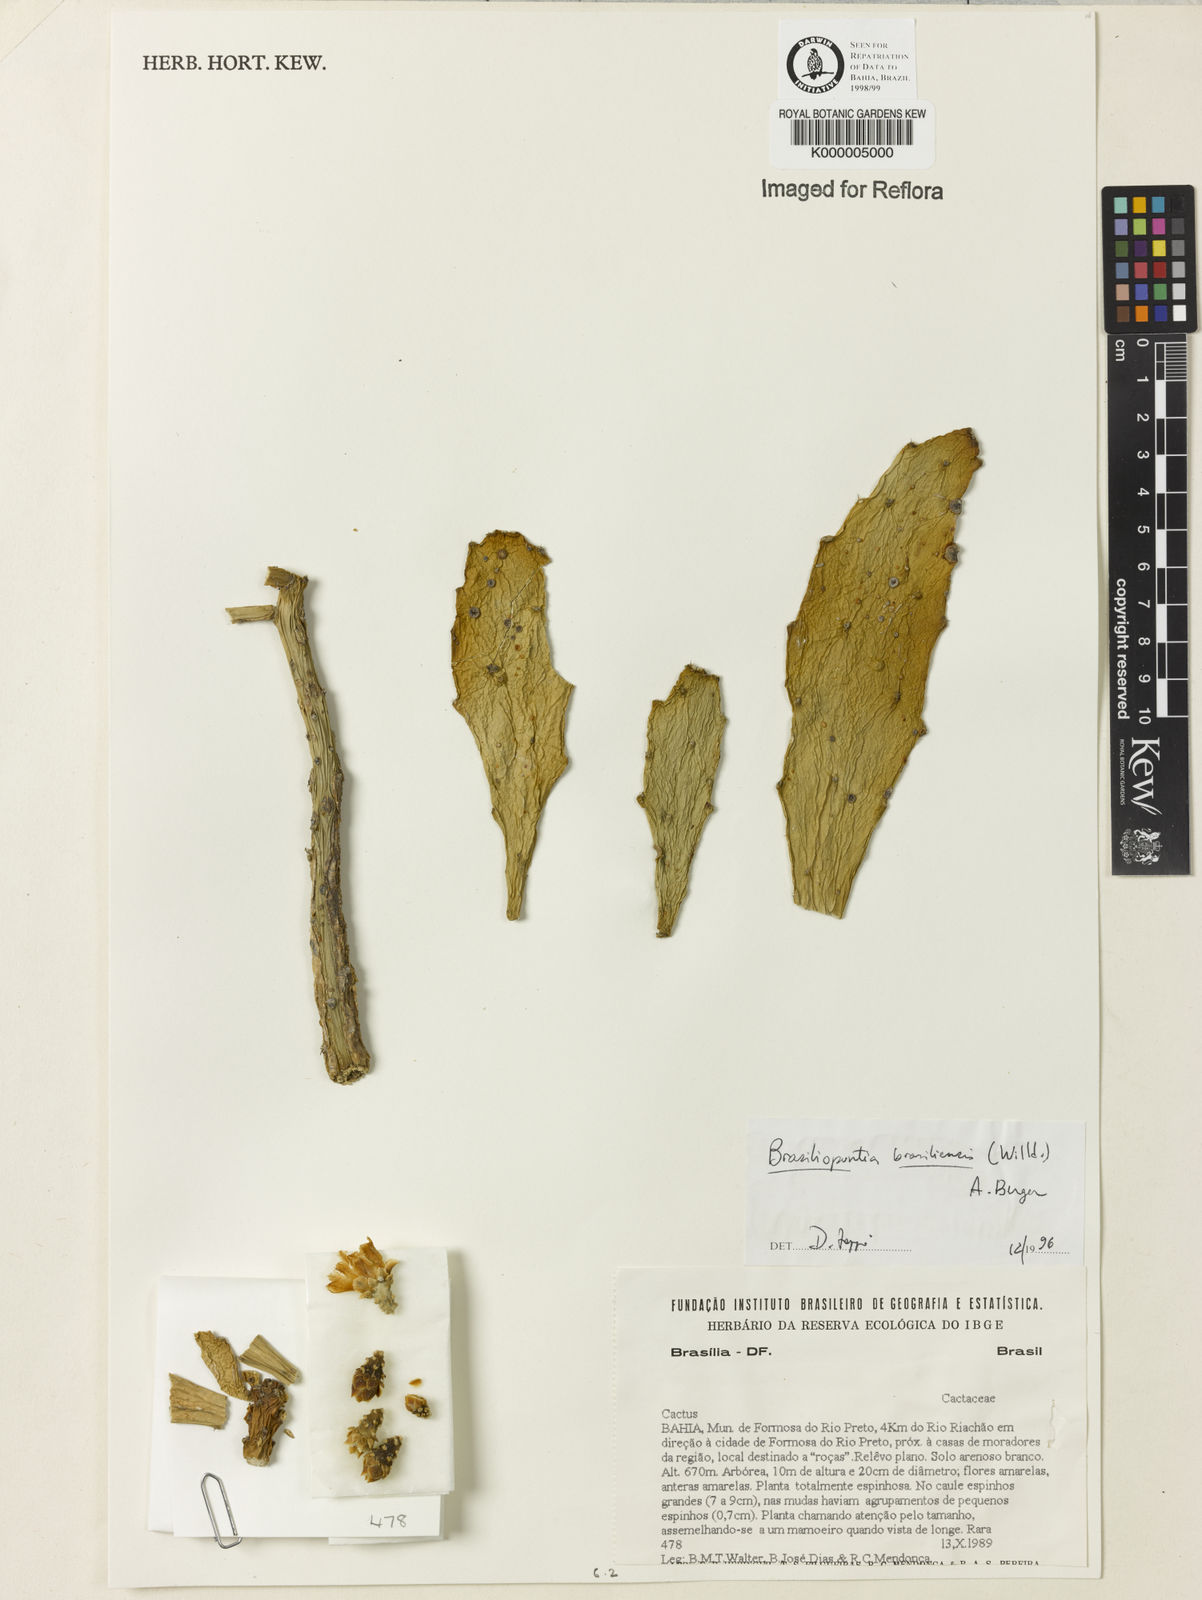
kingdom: Plantae
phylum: Tracheophyta
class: Magnoliopsida
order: Caryophyllales
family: Cactaceae
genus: Opuntia
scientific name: Opuntia
